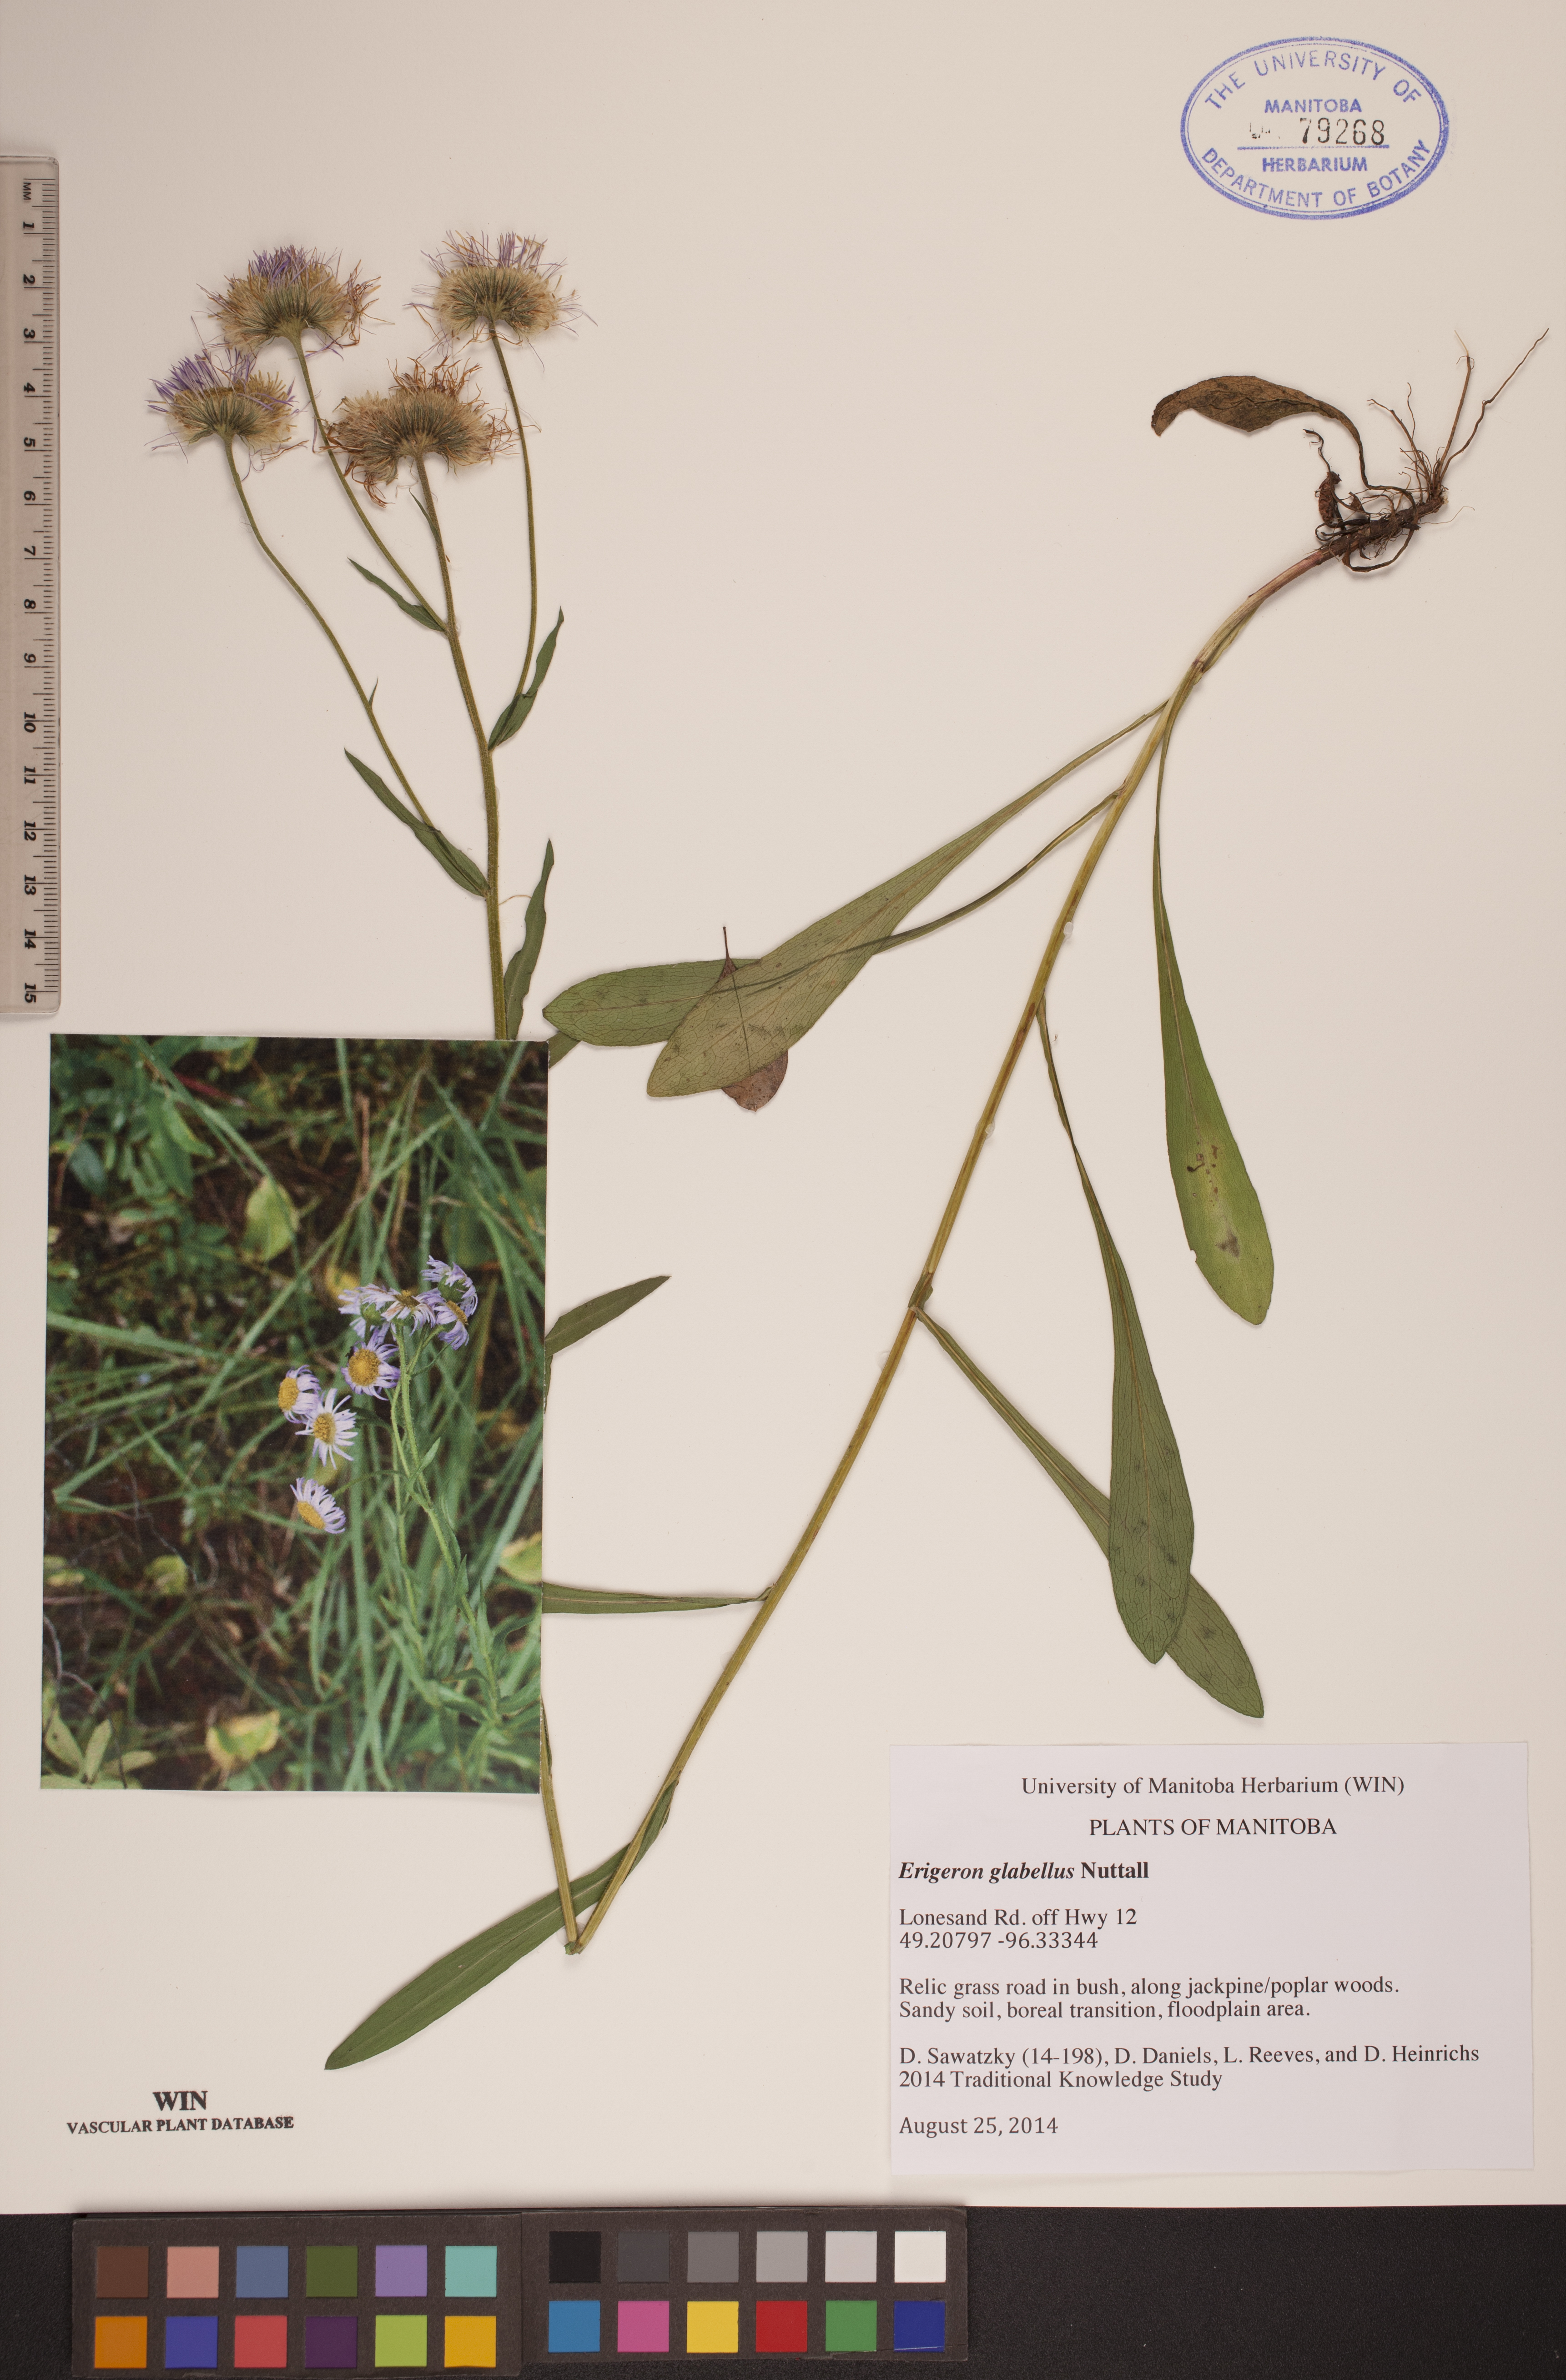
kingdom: Plantae
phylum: Tracheophyta
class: Magnoliopsida
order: Asterales
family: Asteraceae
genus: Erigeron
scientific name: Erigeron glabellus
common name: Smooth fleabane
